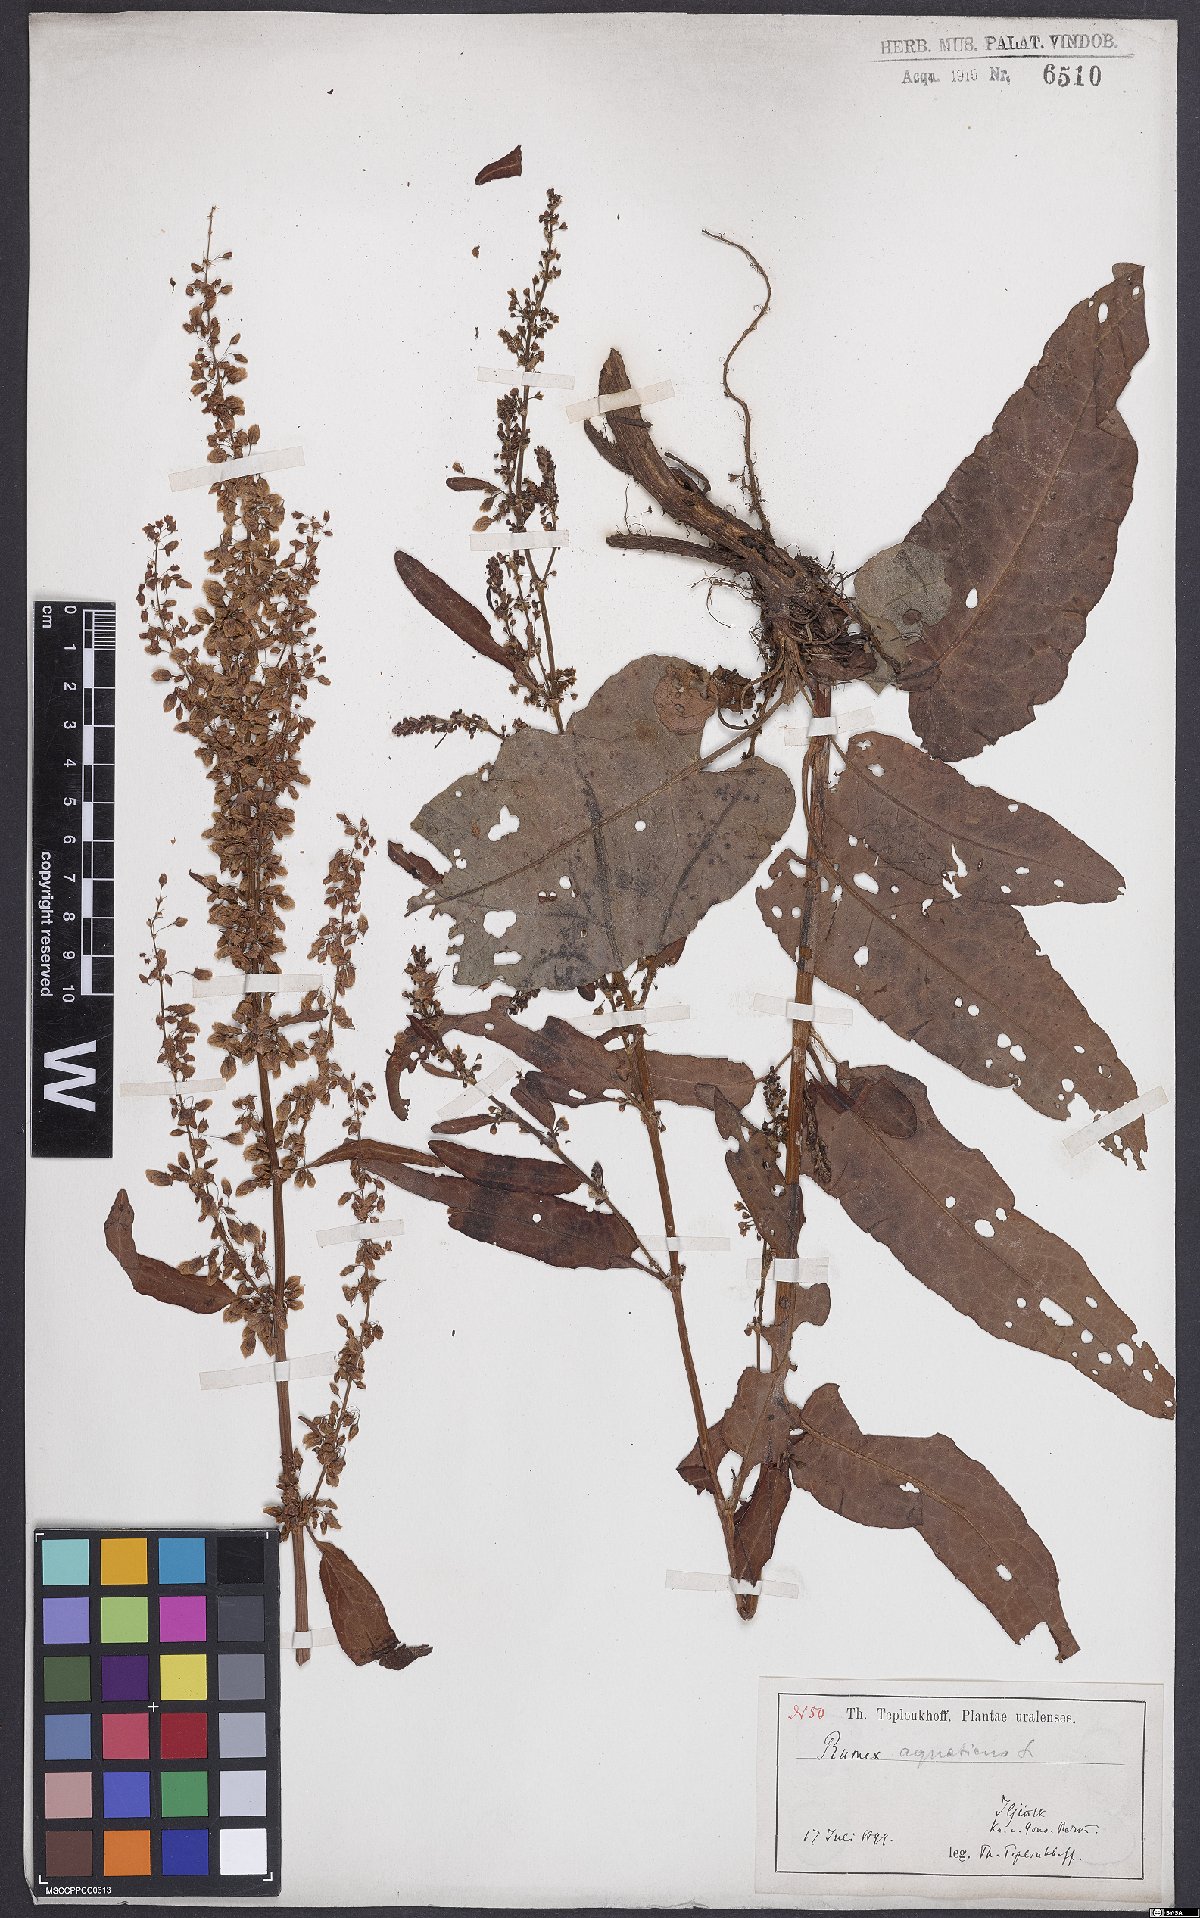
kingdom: Plantae
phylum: Tracheophyta
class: Magnoliopsida
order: Caryophyllales
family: Polygonaceae
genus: Rumex
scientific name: Rumex aquaticus
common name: Scottish dock
